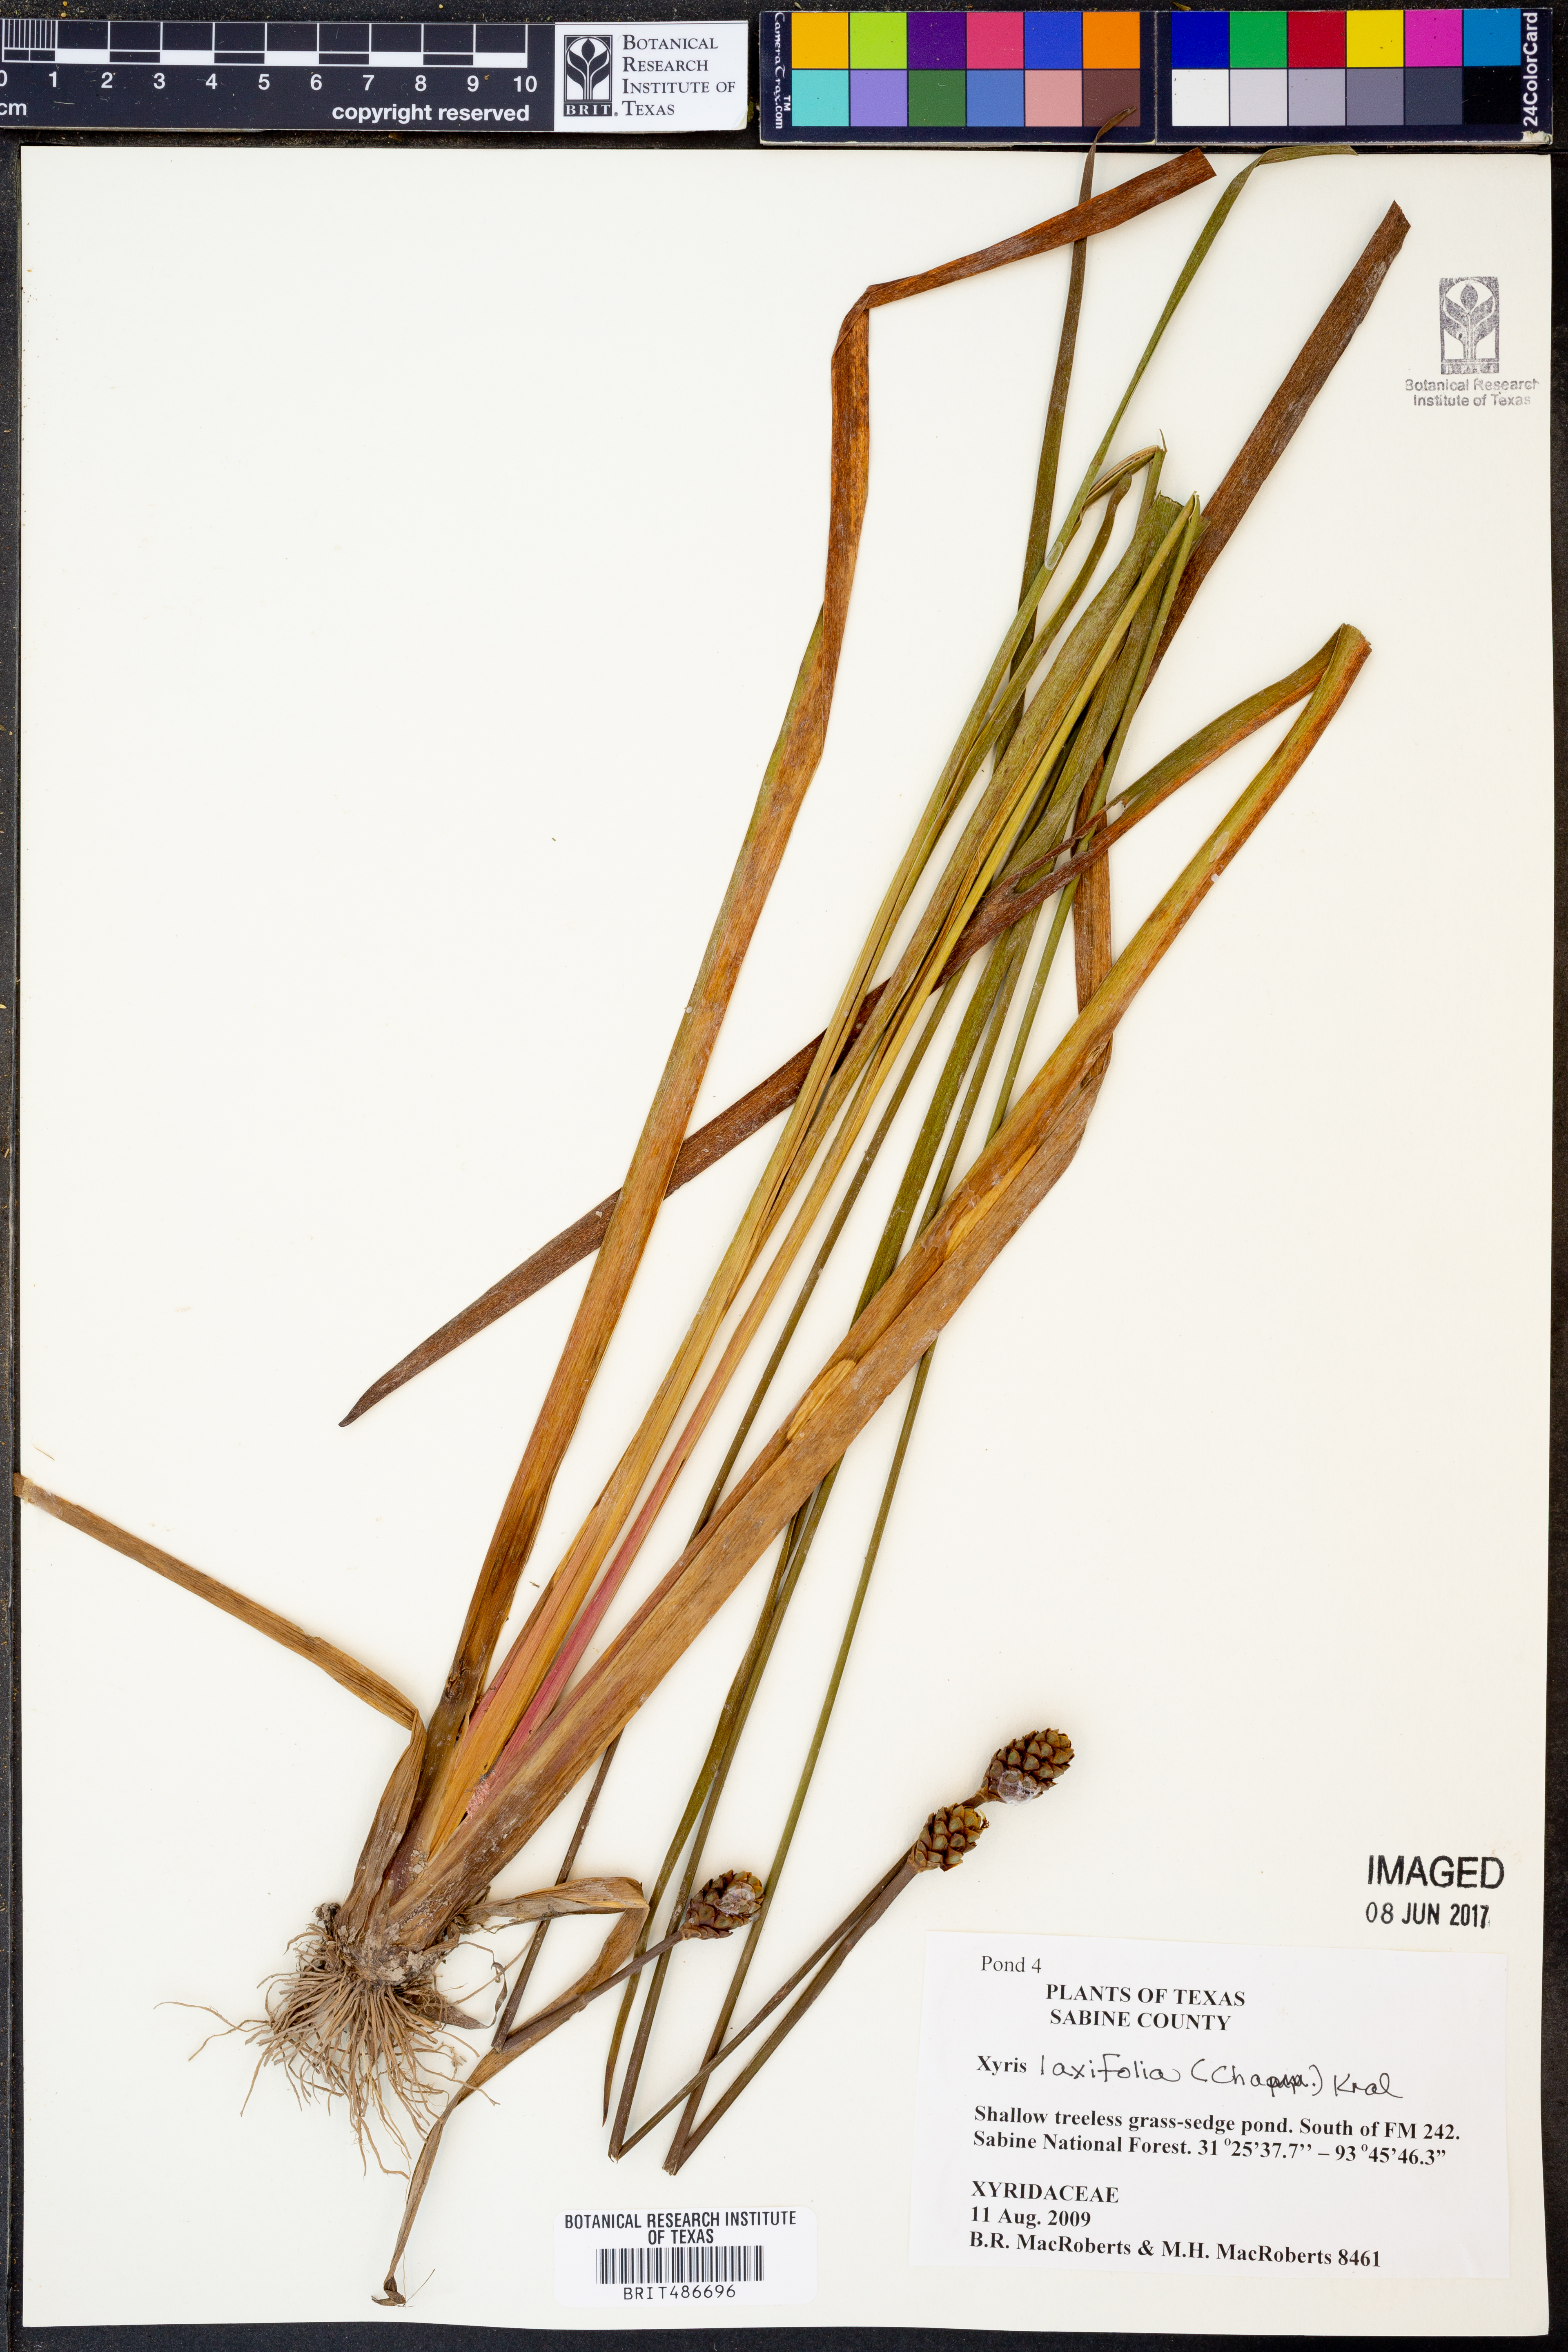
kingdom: Plantae
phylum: Tracheophyta
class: Liliopsida
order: Poales
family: Xyridaceae
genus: Xyris
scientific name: Xyris laxifolia
